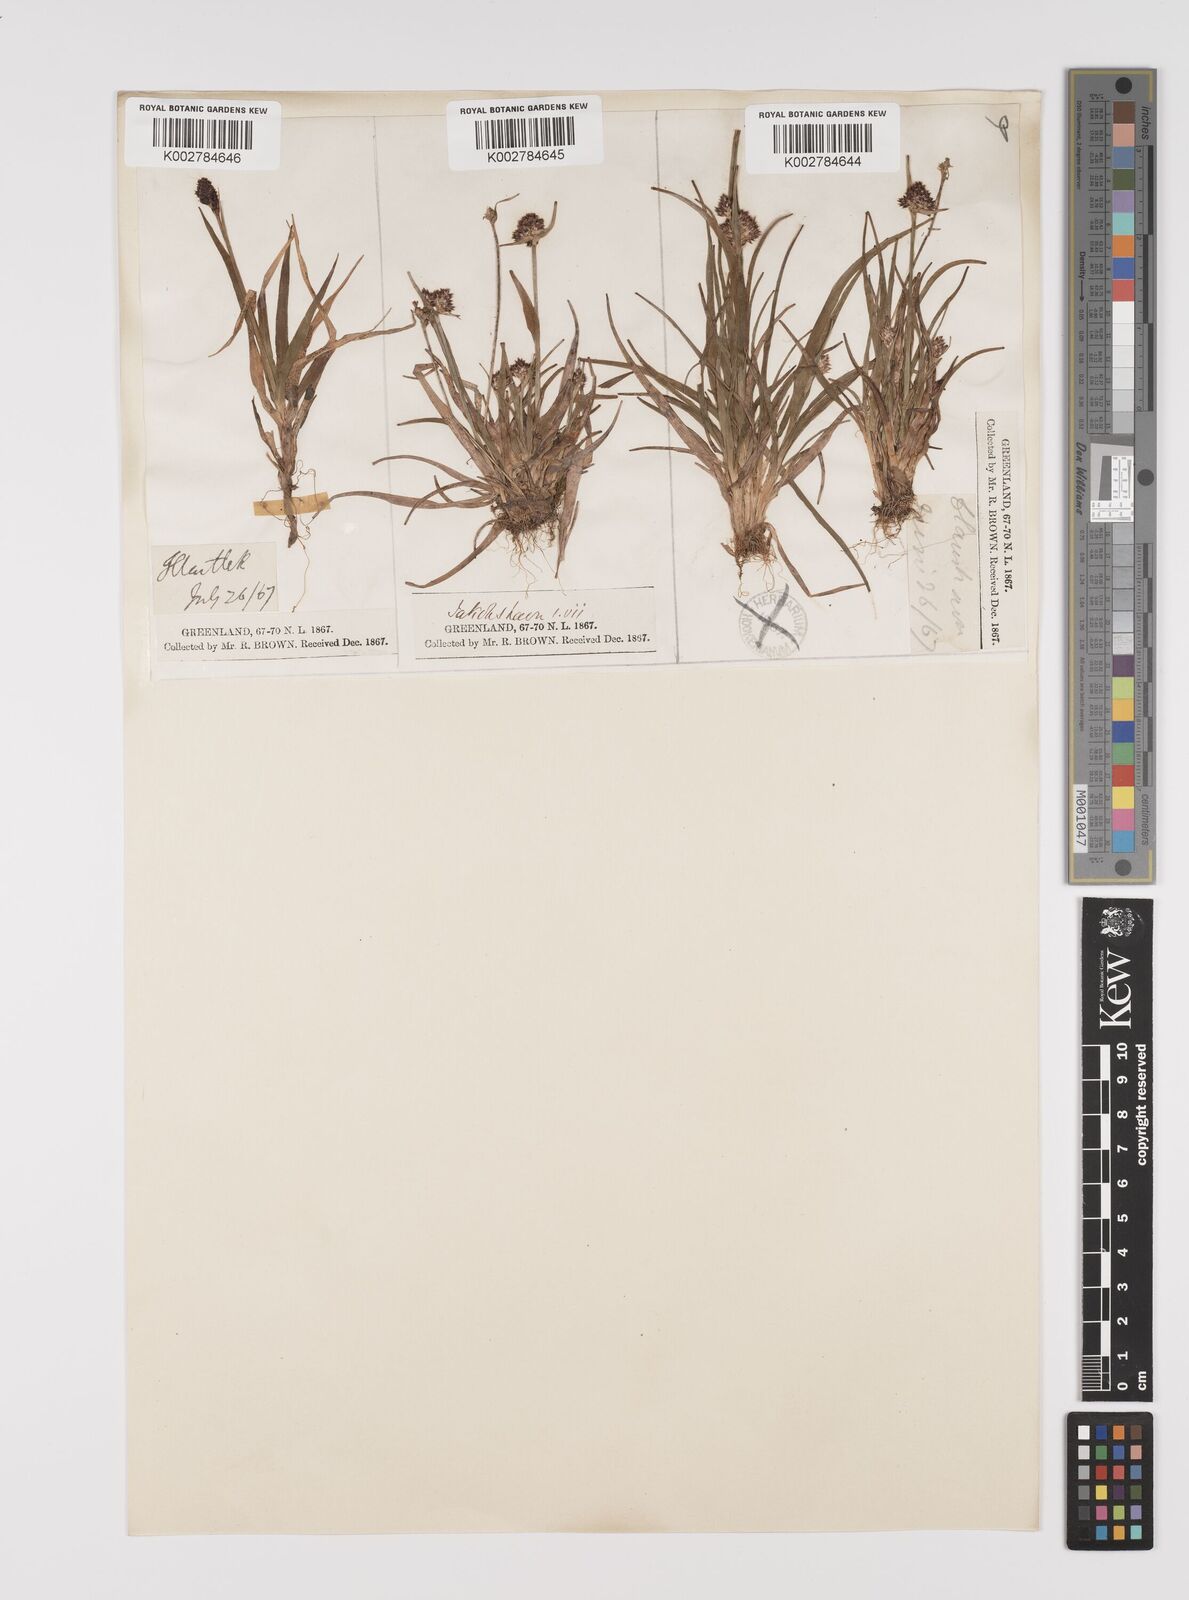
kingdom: Plantae
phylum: Tracheophyta
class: Liliopsida
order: Poales
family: Juncaceae
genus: Luzula
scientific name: Luzula campestris
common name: Field wood-rush
